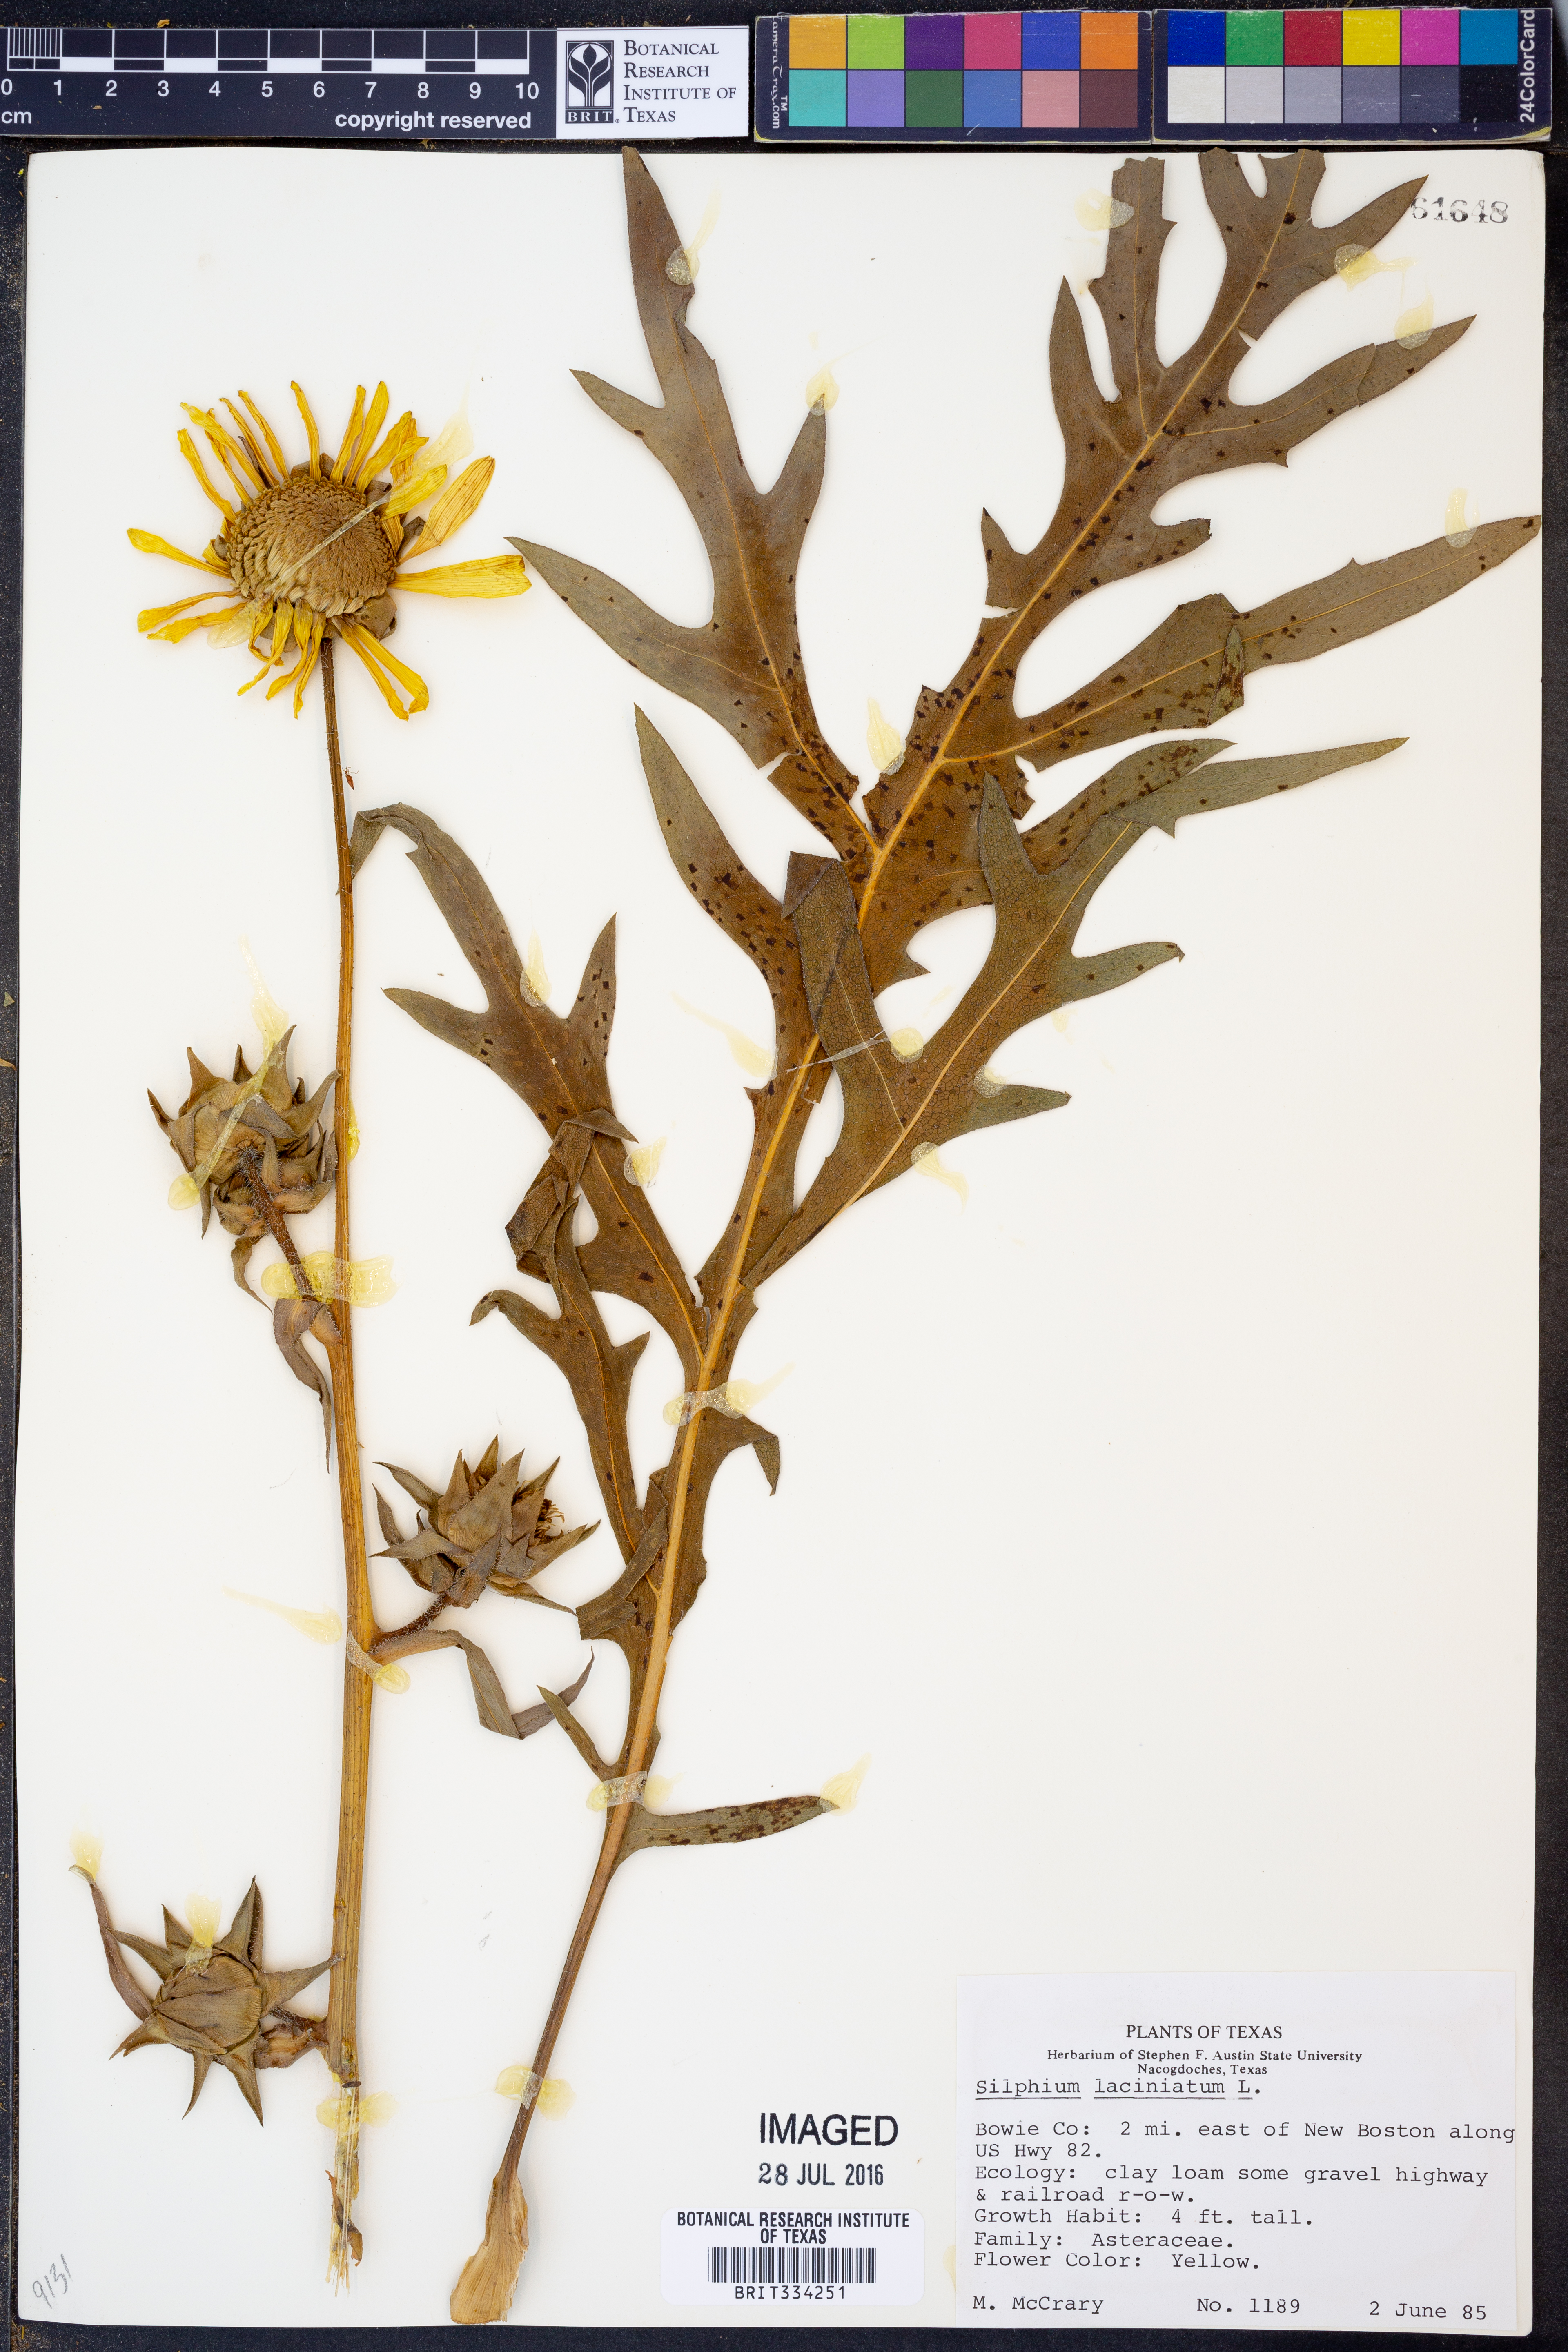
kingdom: Plantae
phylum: Tracheophyta
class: Magnoliopsida
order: Asterales
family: Asteraceae
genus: Silphium
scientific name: Silphium laciniatum
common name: Polarplant
